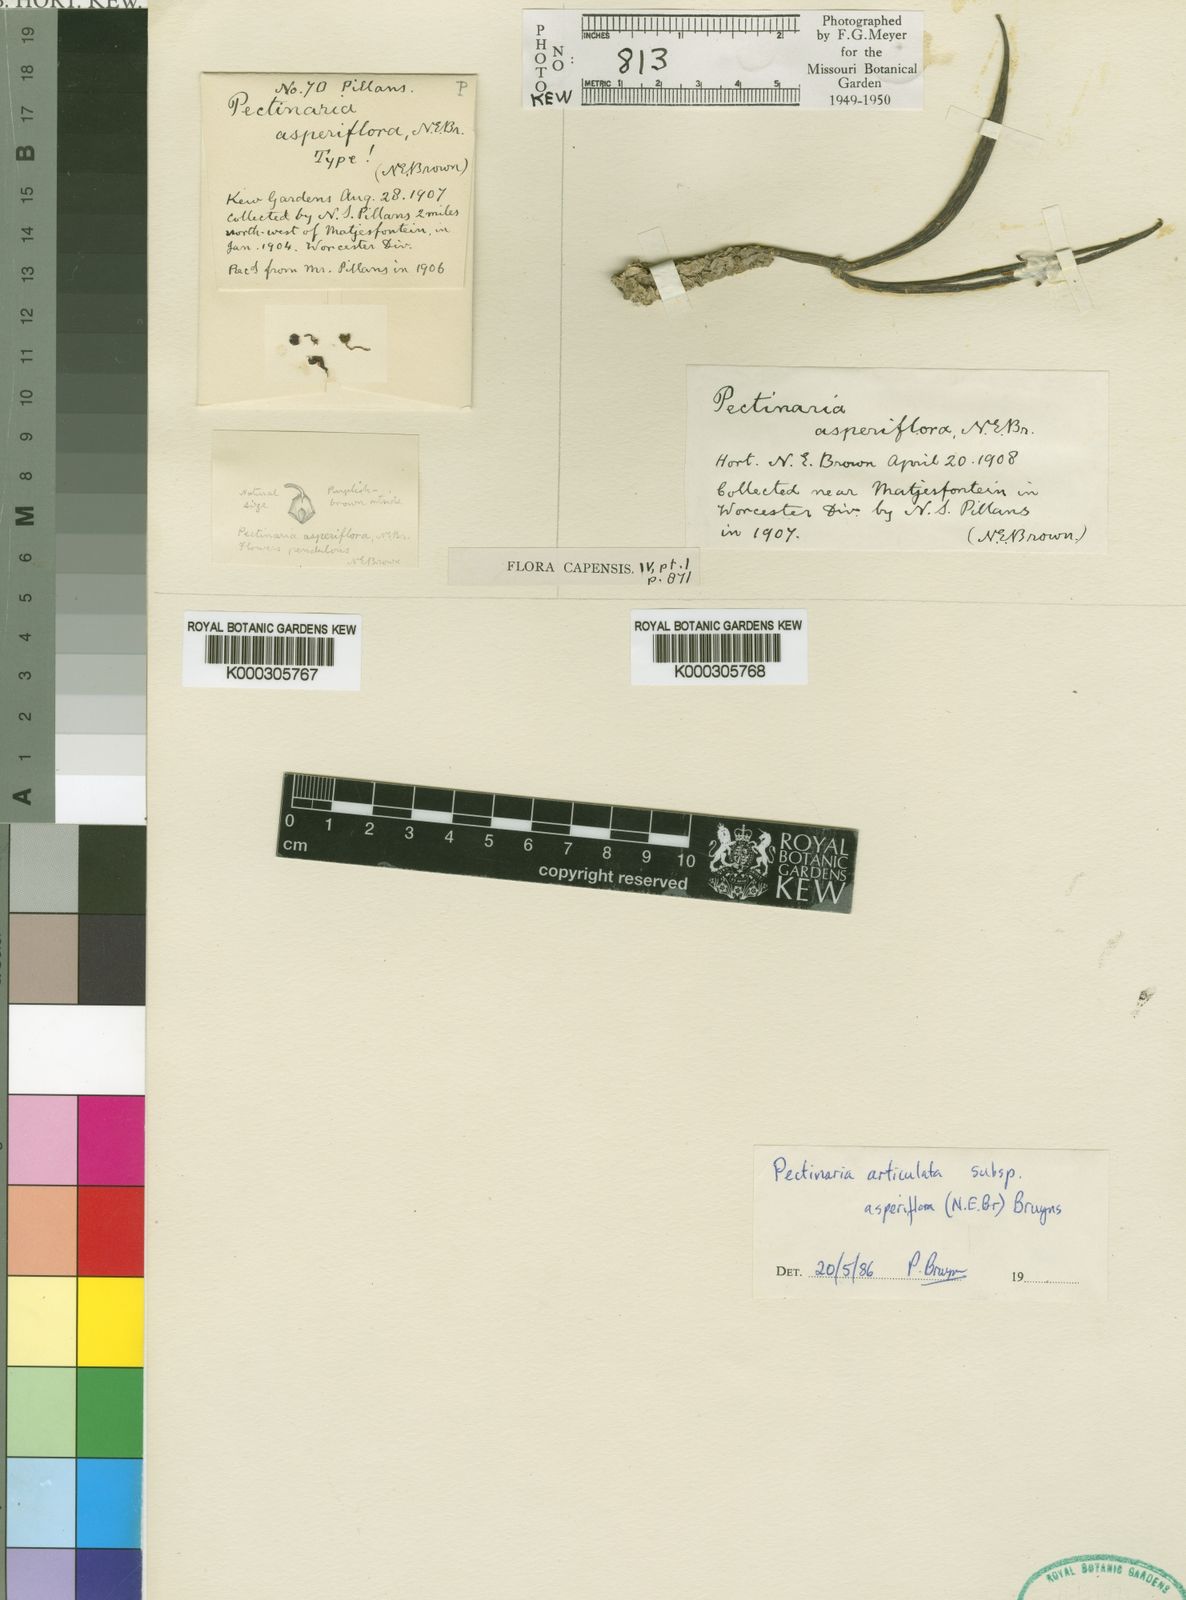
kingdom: Plantae
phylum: Tracheophyta
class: Magnoliopsida
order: Gentianales
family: Apocynaceae
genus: Ceropegia
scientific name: Ceropegia articulata
